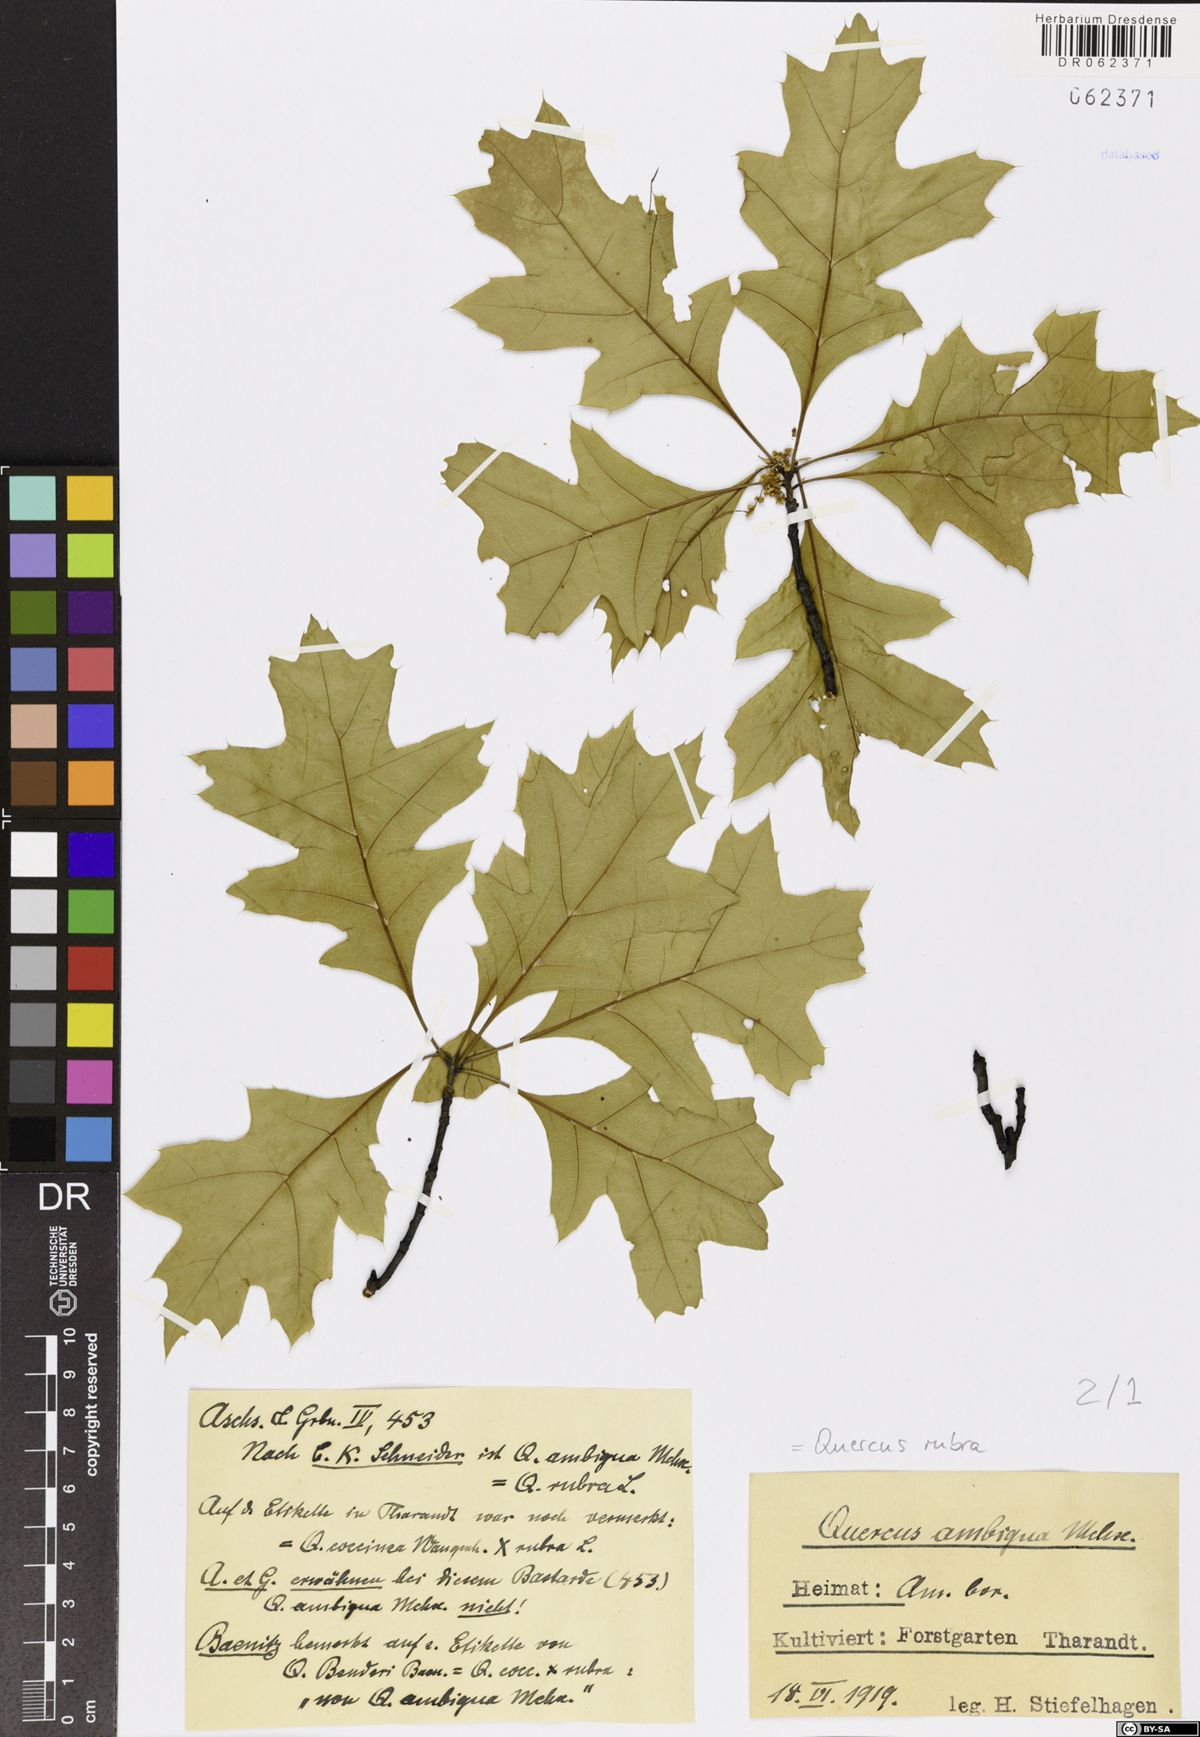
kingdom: Plantae
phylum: Tracheophyta
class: Magnoliopsida
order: Fagales
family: Fagaceae
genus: Quercus
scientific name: Quercus rubra
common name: Red oak
